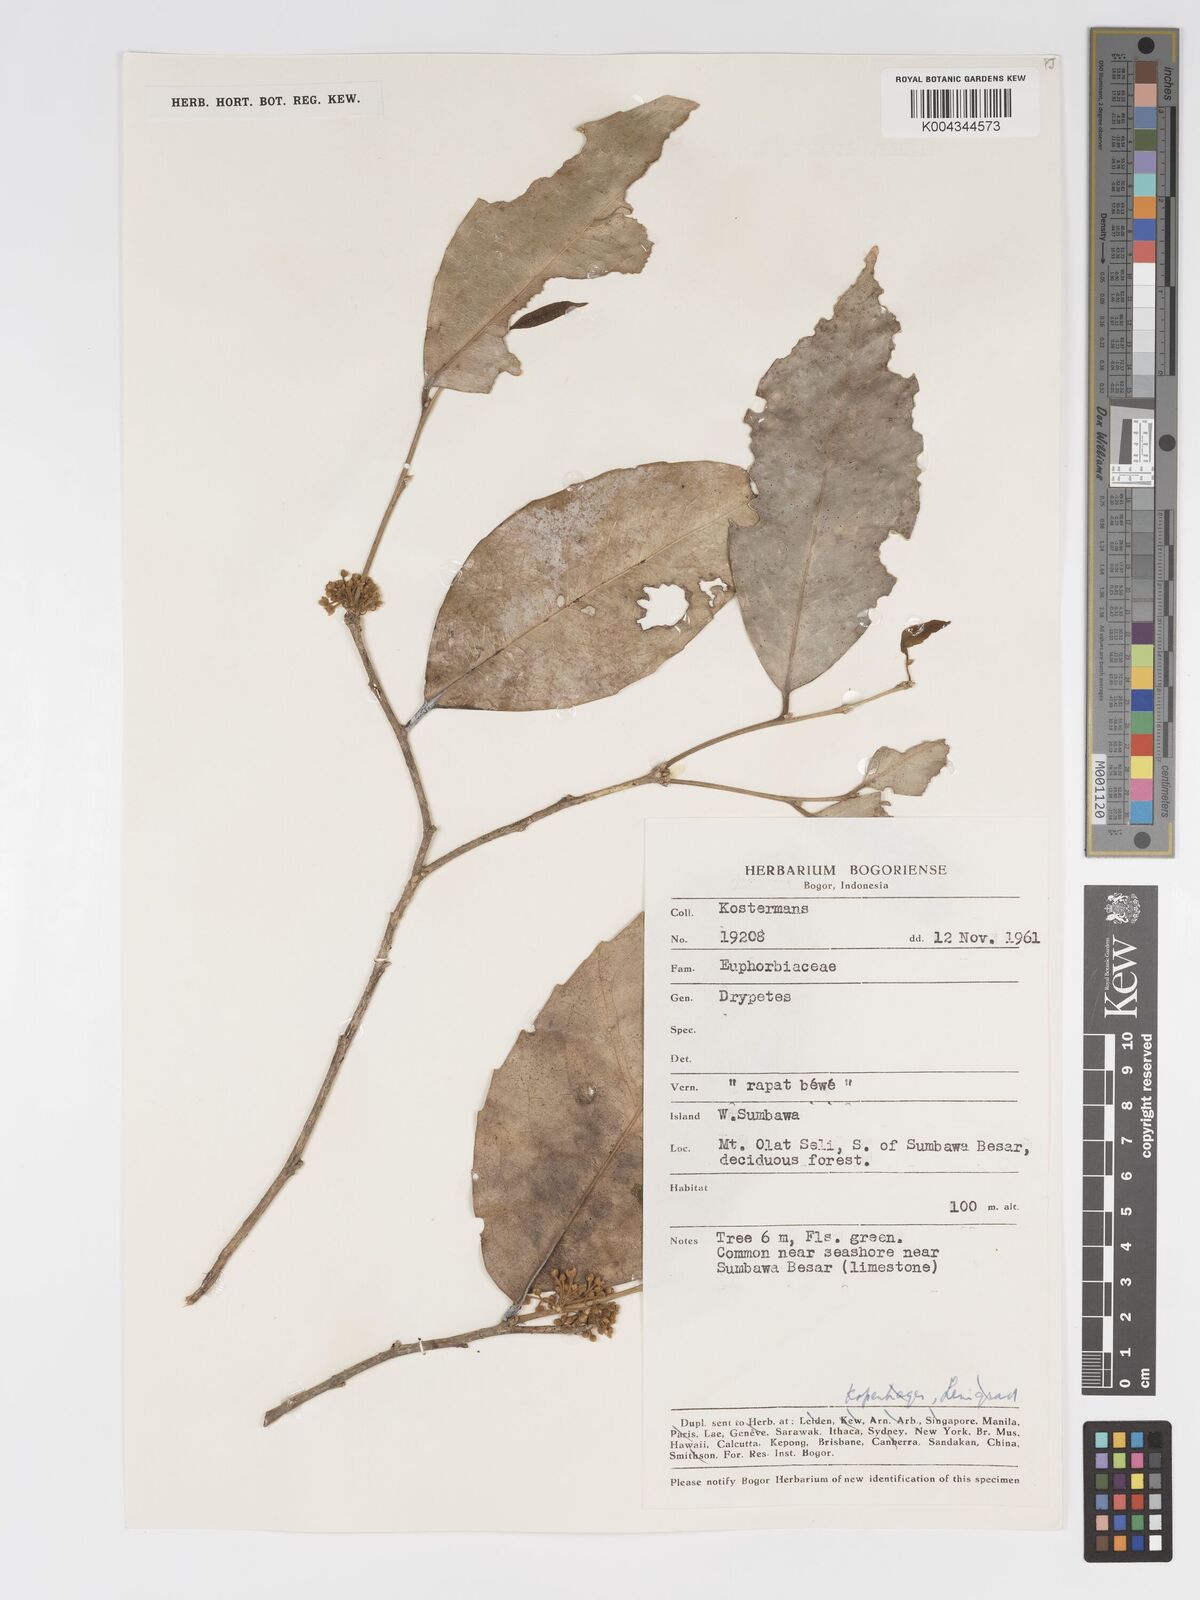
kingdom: Plantae
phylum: Tracheophyta
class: Magnoliopsida
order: Malpighiales
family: Putranjivaceae
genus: Drypetes
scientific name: Drypetes neglecta
